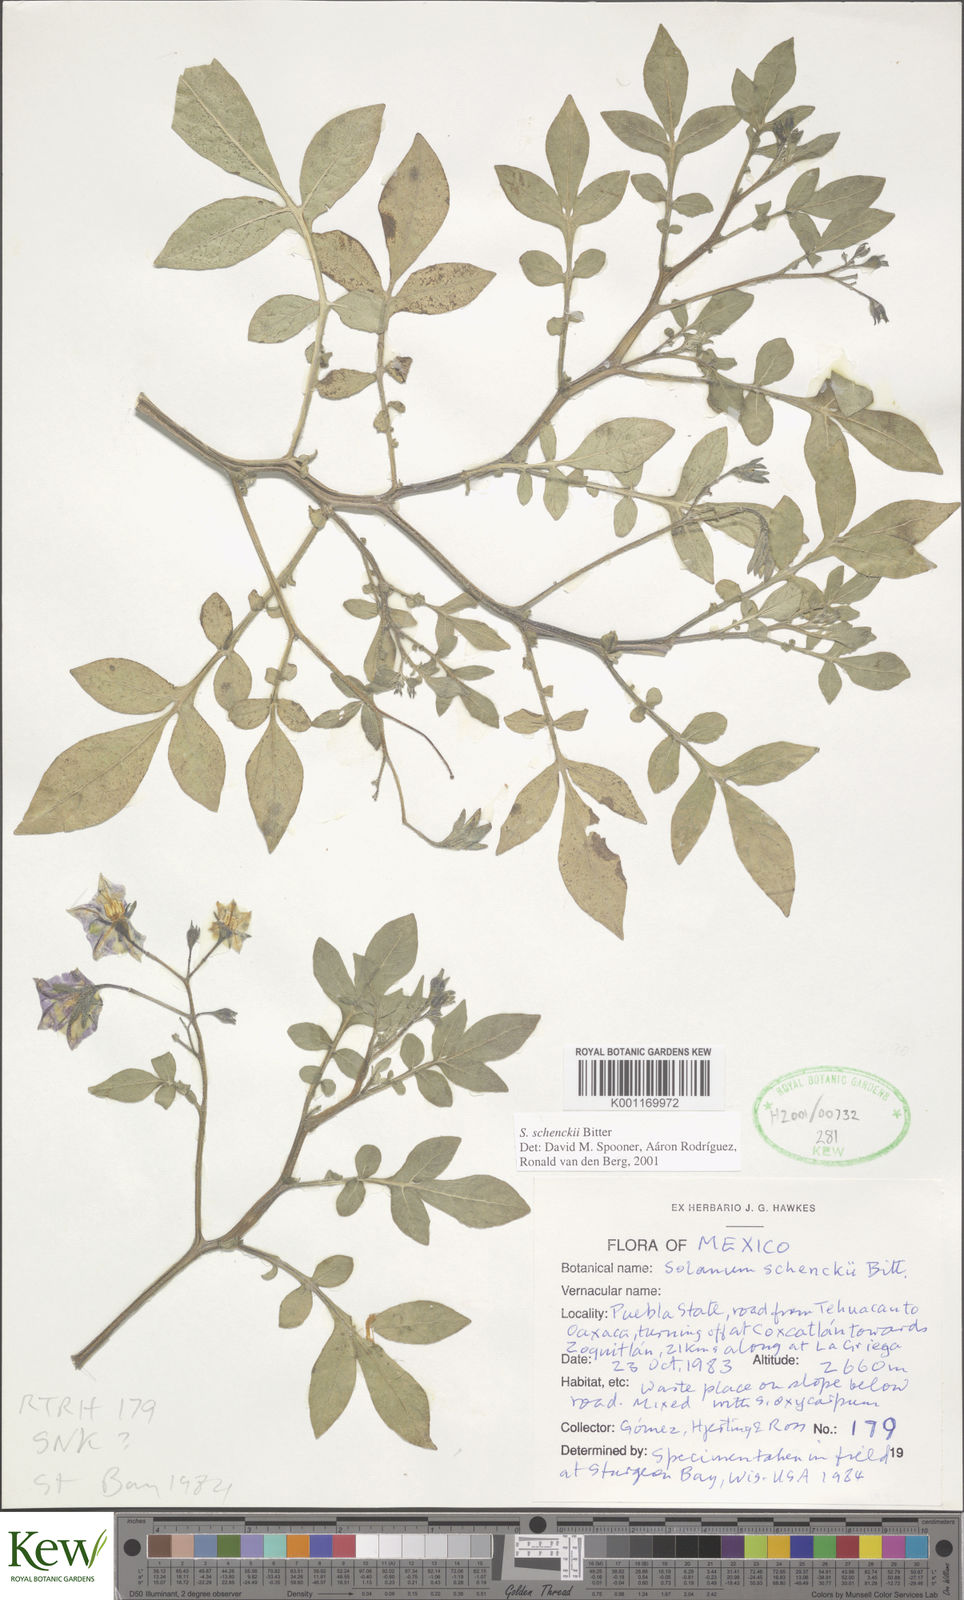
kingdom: Plantae
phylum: Tracheophyta
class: Magnoliopsida
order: Solanales
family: Solanaceae
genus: Solanum
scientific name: Solanum schenckii
